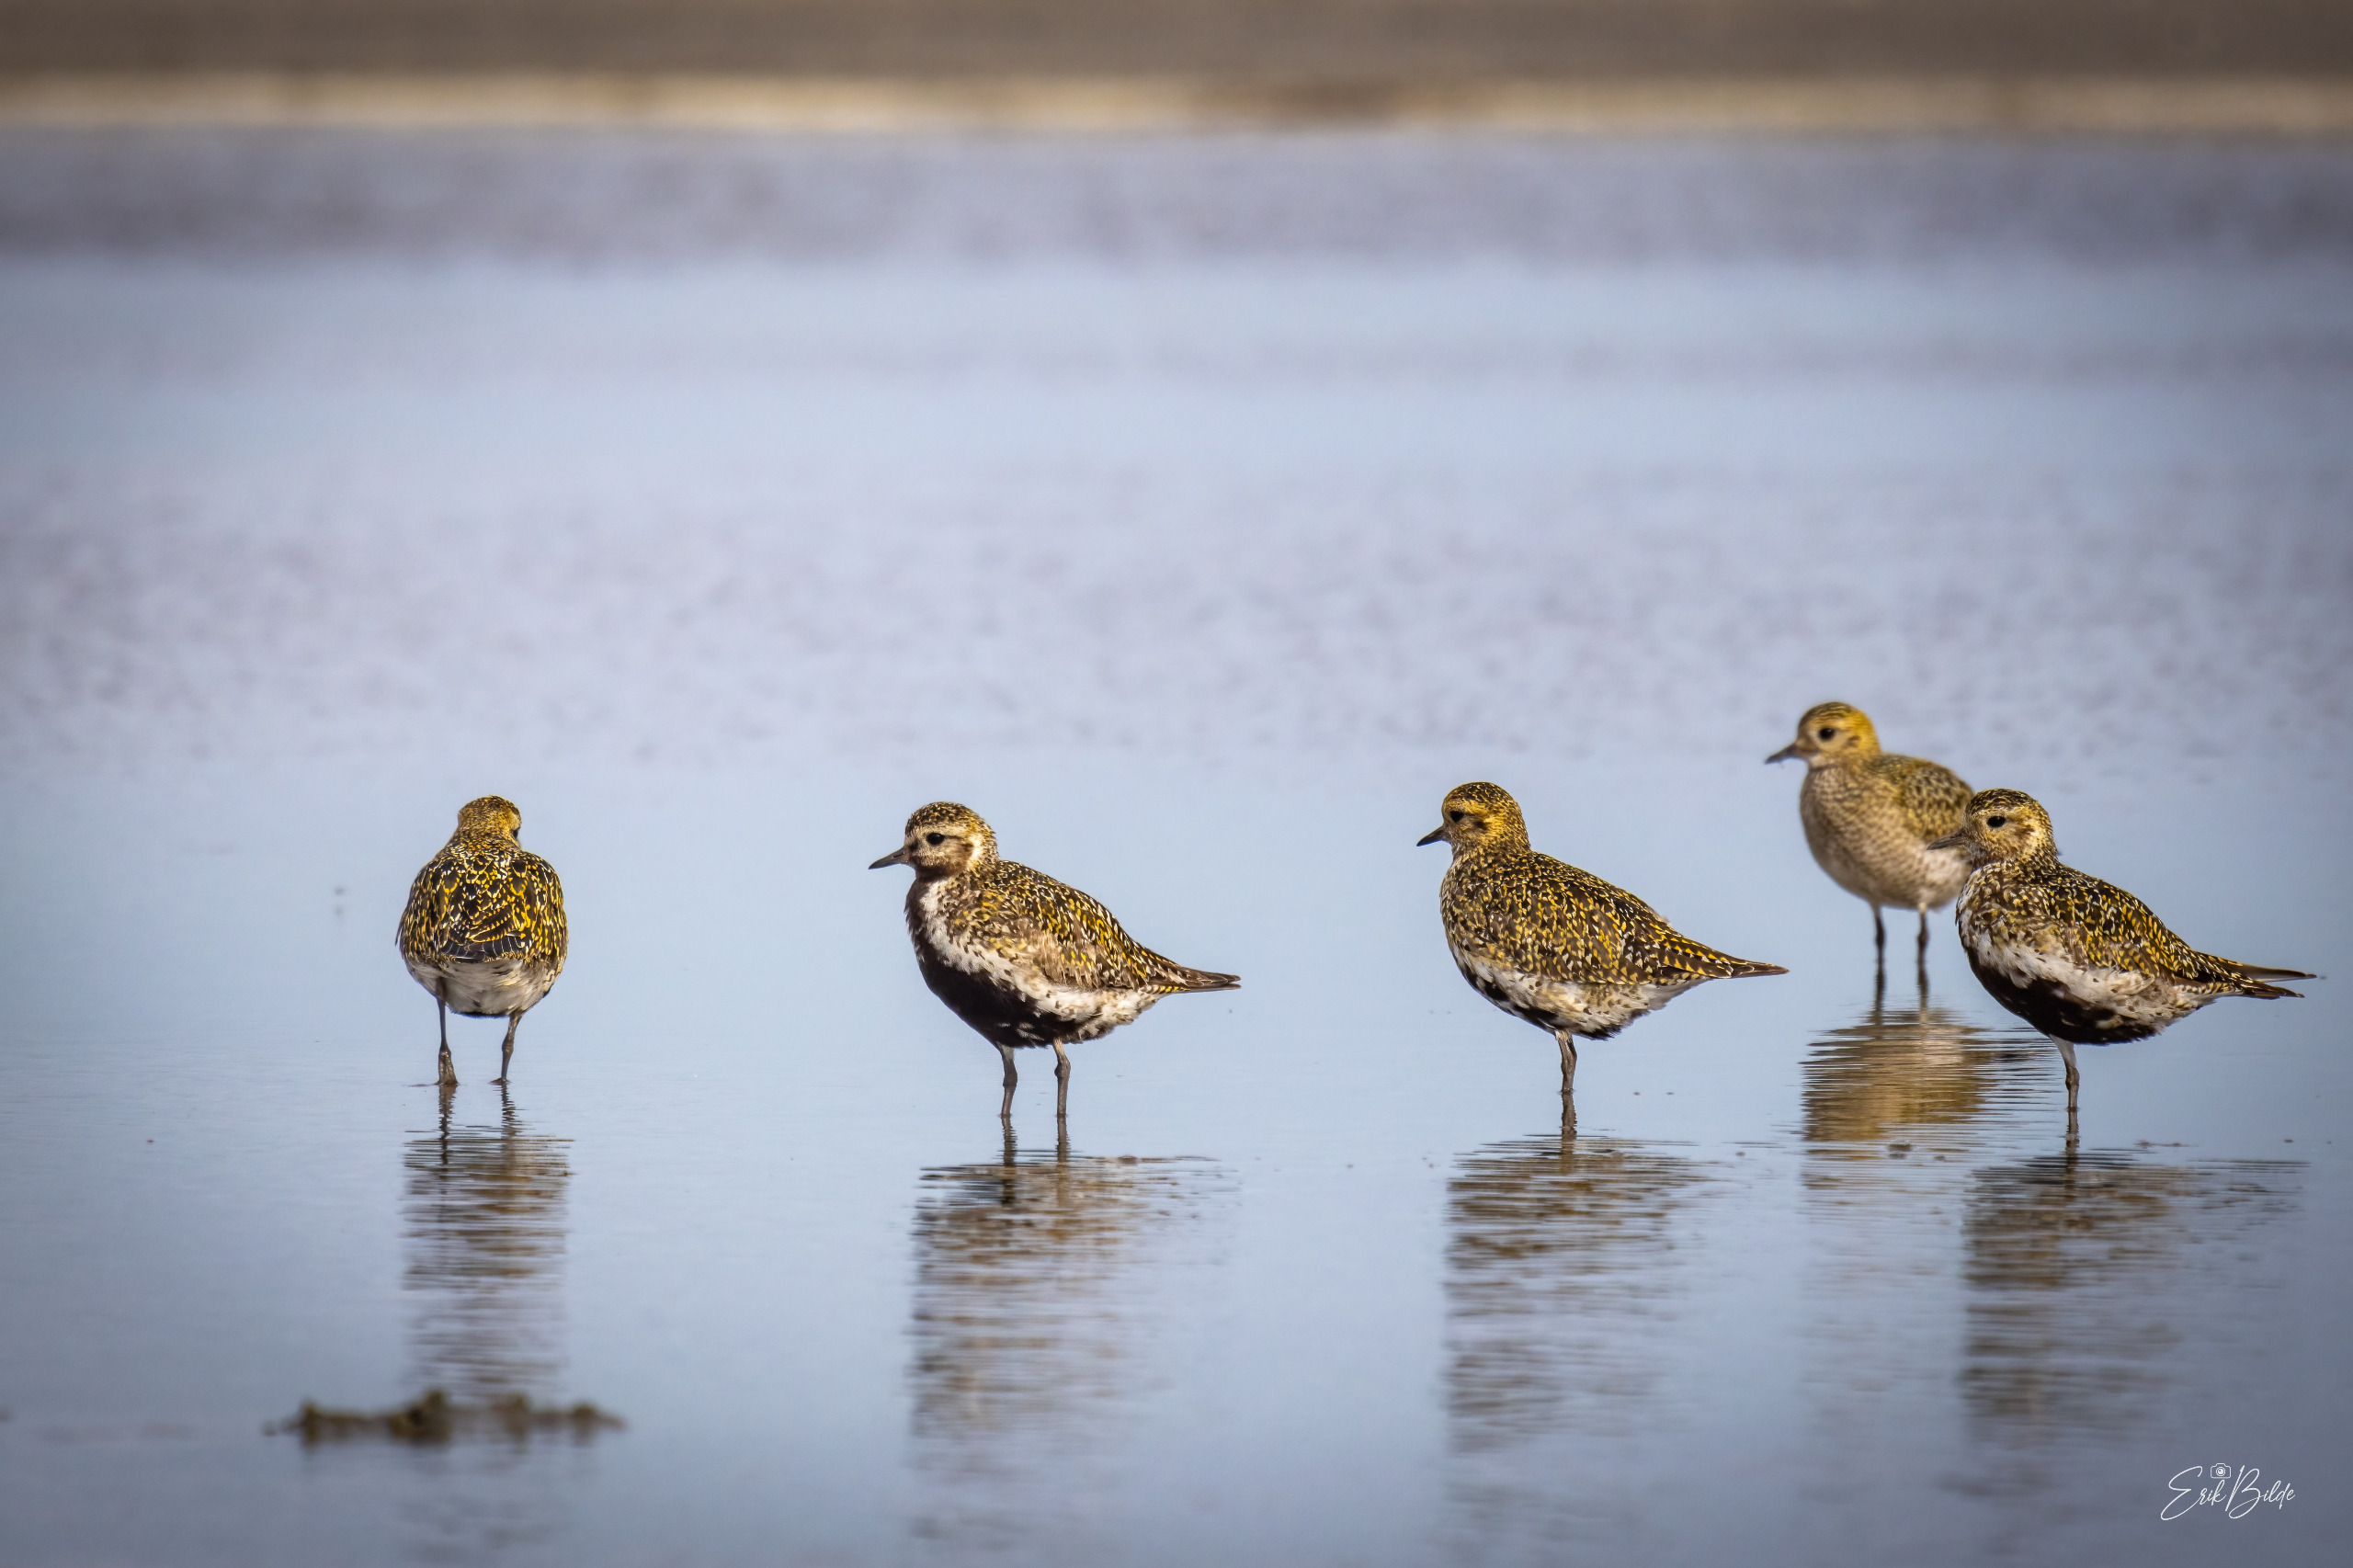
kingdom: Animalia
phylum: Chordata
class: Aves
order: Charadriiformes
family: Charadriidae
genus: Pluvialis
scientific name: Pluvialis apricaria
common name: Hjejle
